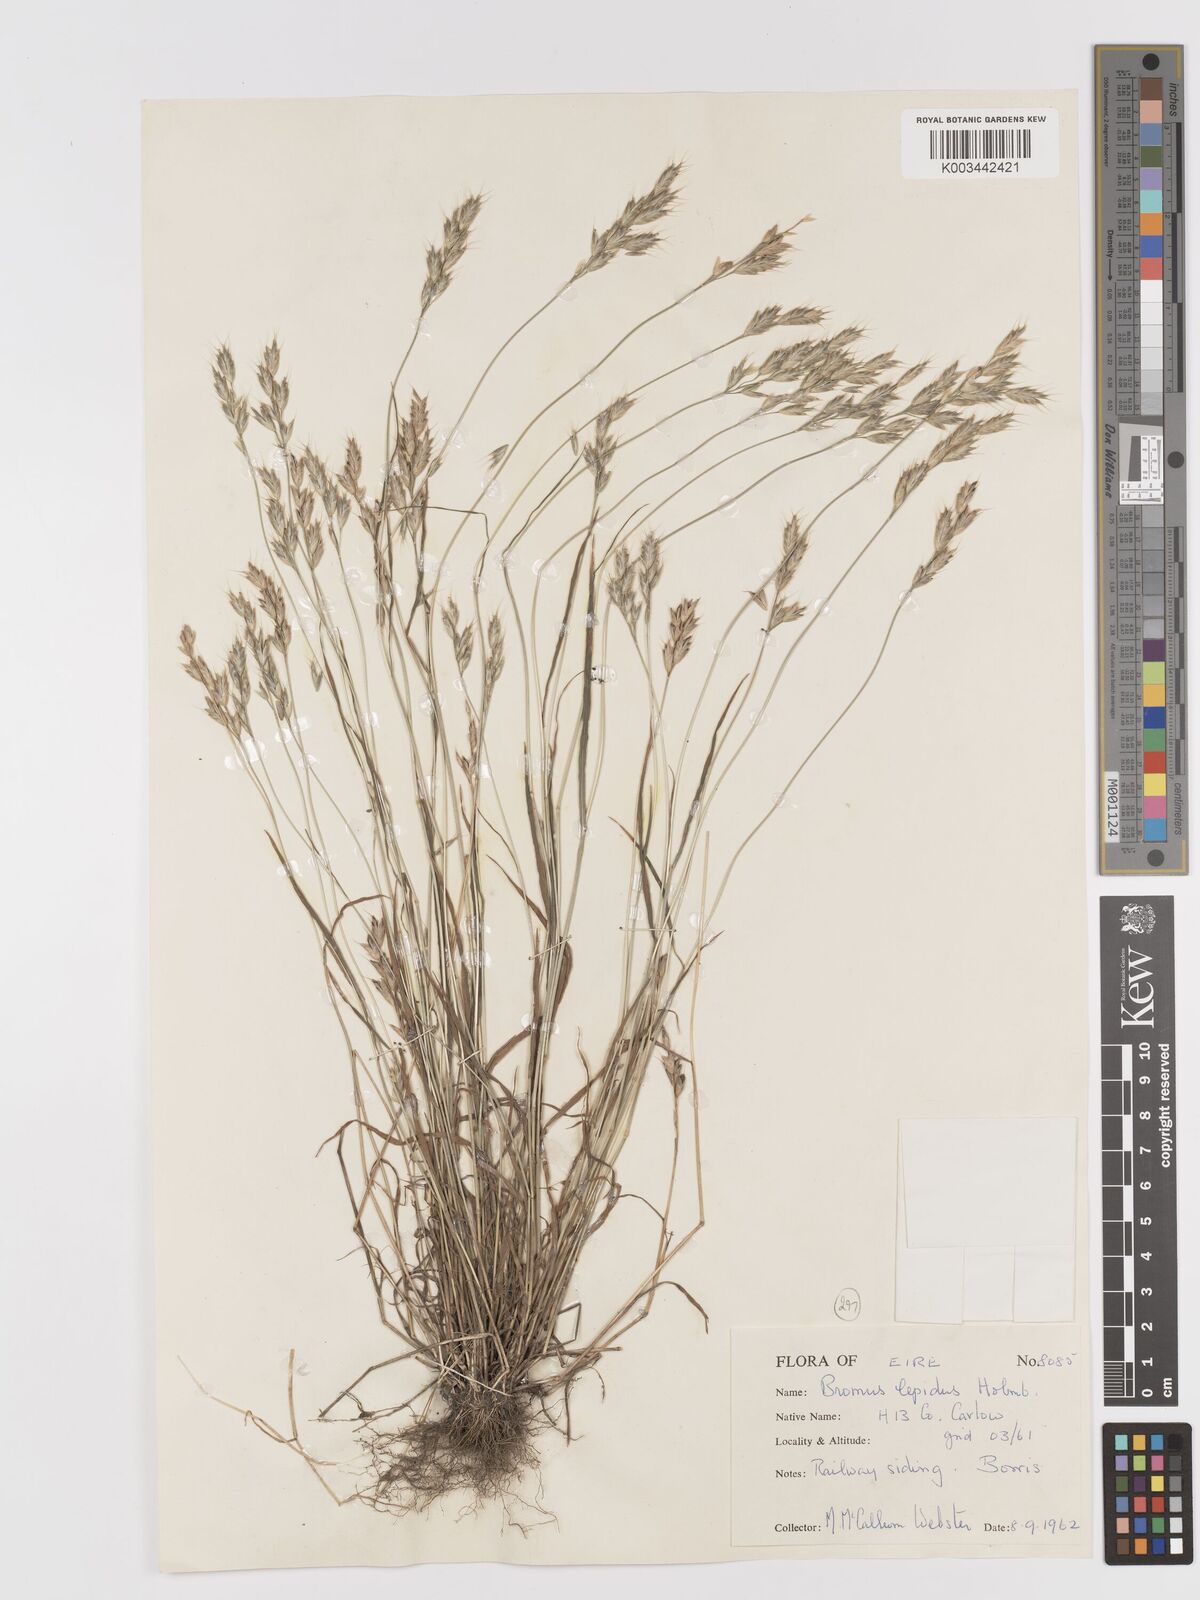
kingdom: Plantae
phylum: Tracheophyta
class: Liliopsida
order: Poales
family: Poaceae
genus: Bromus
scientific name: Bromus lepidus
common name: Slender soft-brome
